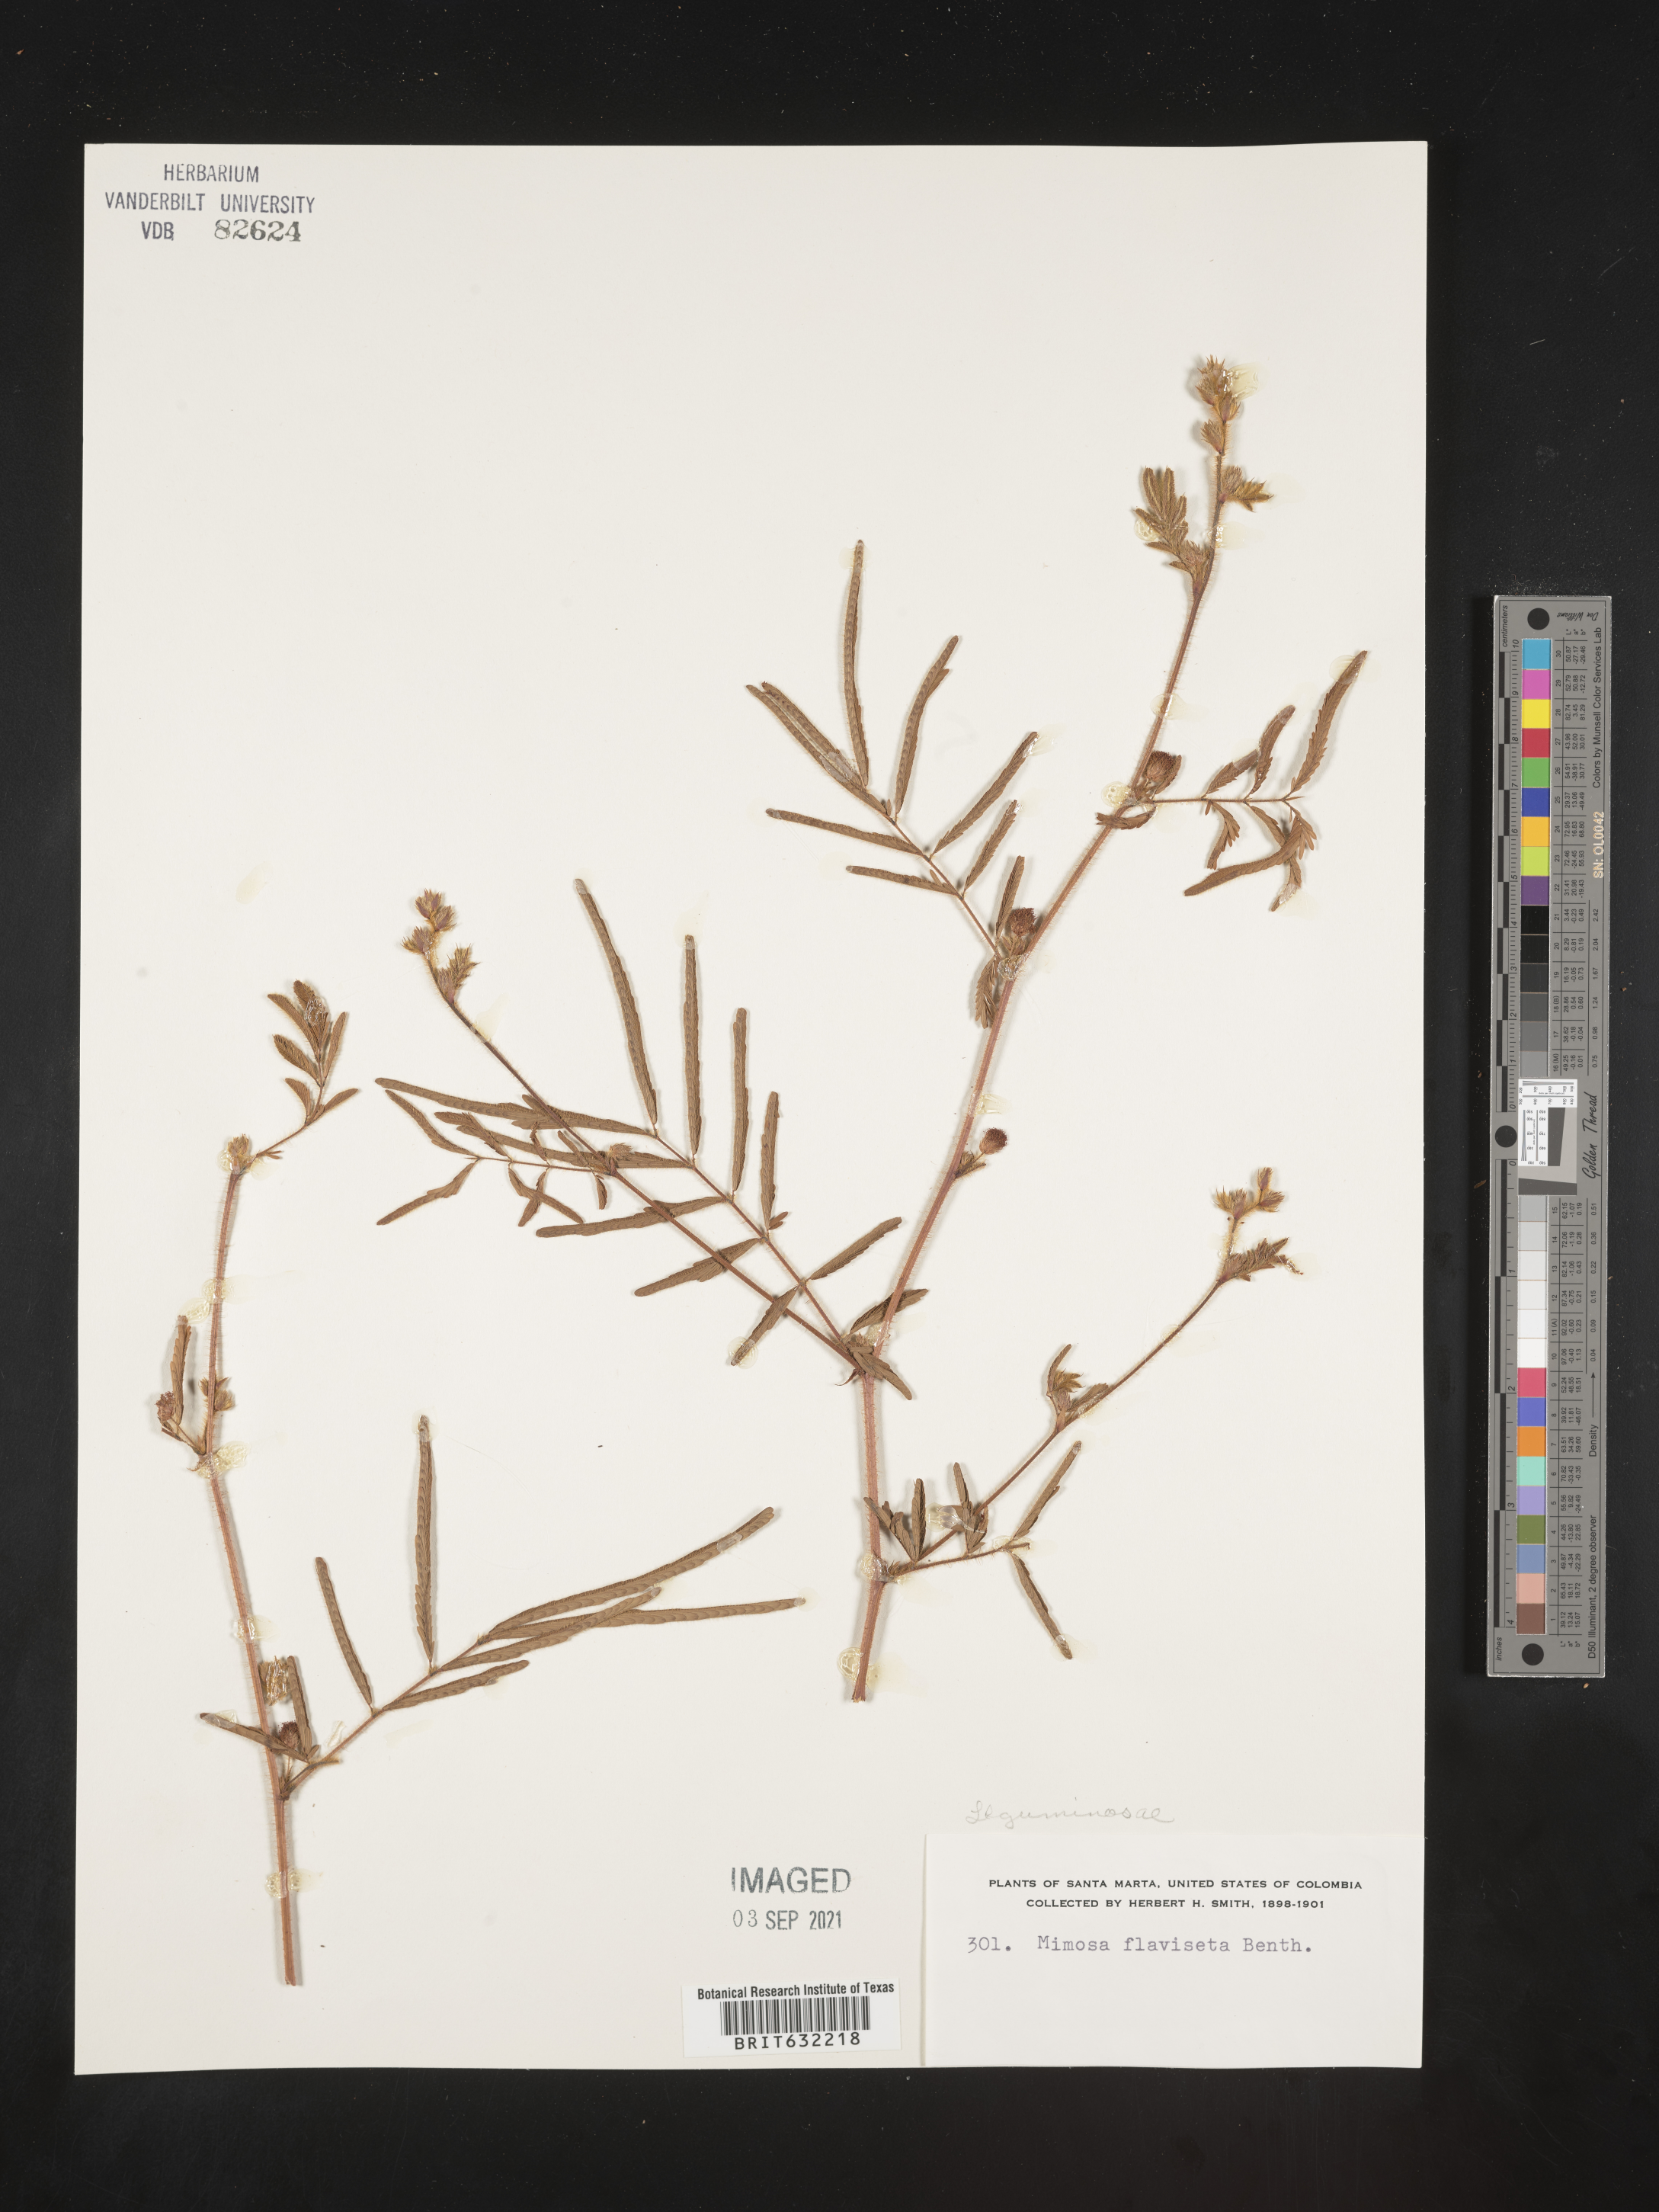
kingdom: Plantae
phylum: Tracheophyta
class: Magnoliopsida
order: Fabales
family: Fabaceae
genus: Mimosa
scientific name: Mimosa
